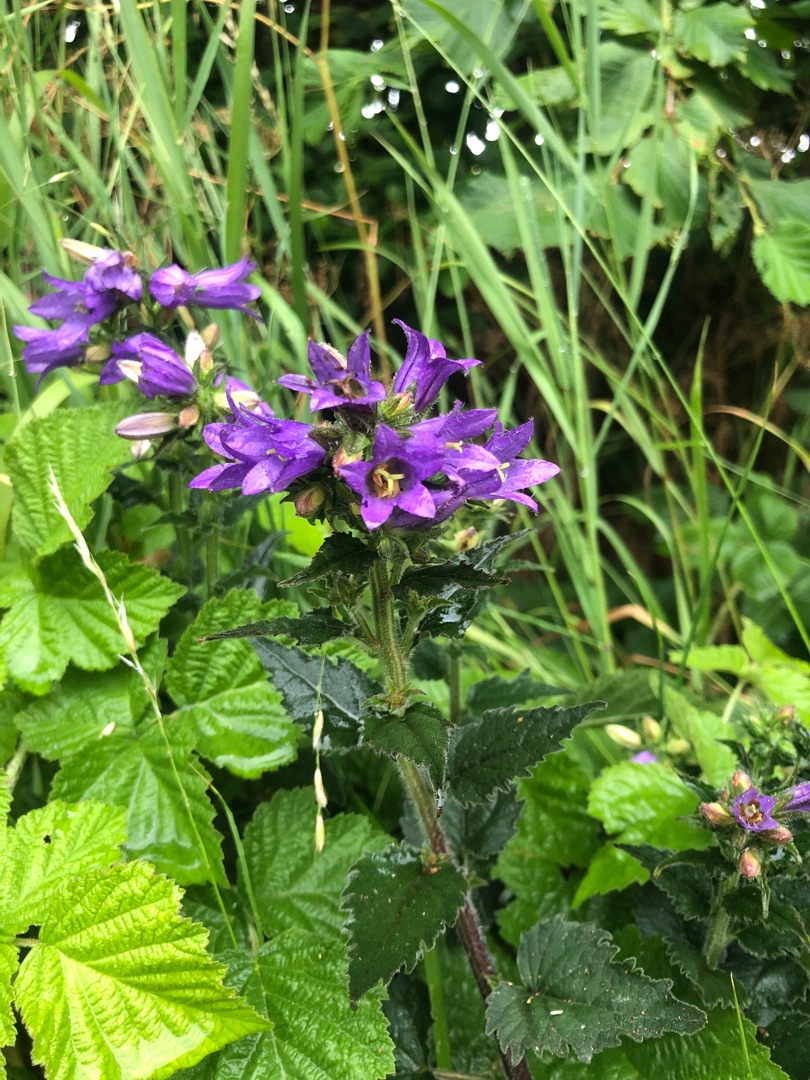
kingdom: Plantae
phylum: Tracheophyta
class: Magnoliopsida
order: Asterales
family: Campanulaceae
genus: Campanula
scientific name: Campanula trachelium
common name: Nælde-klokke
